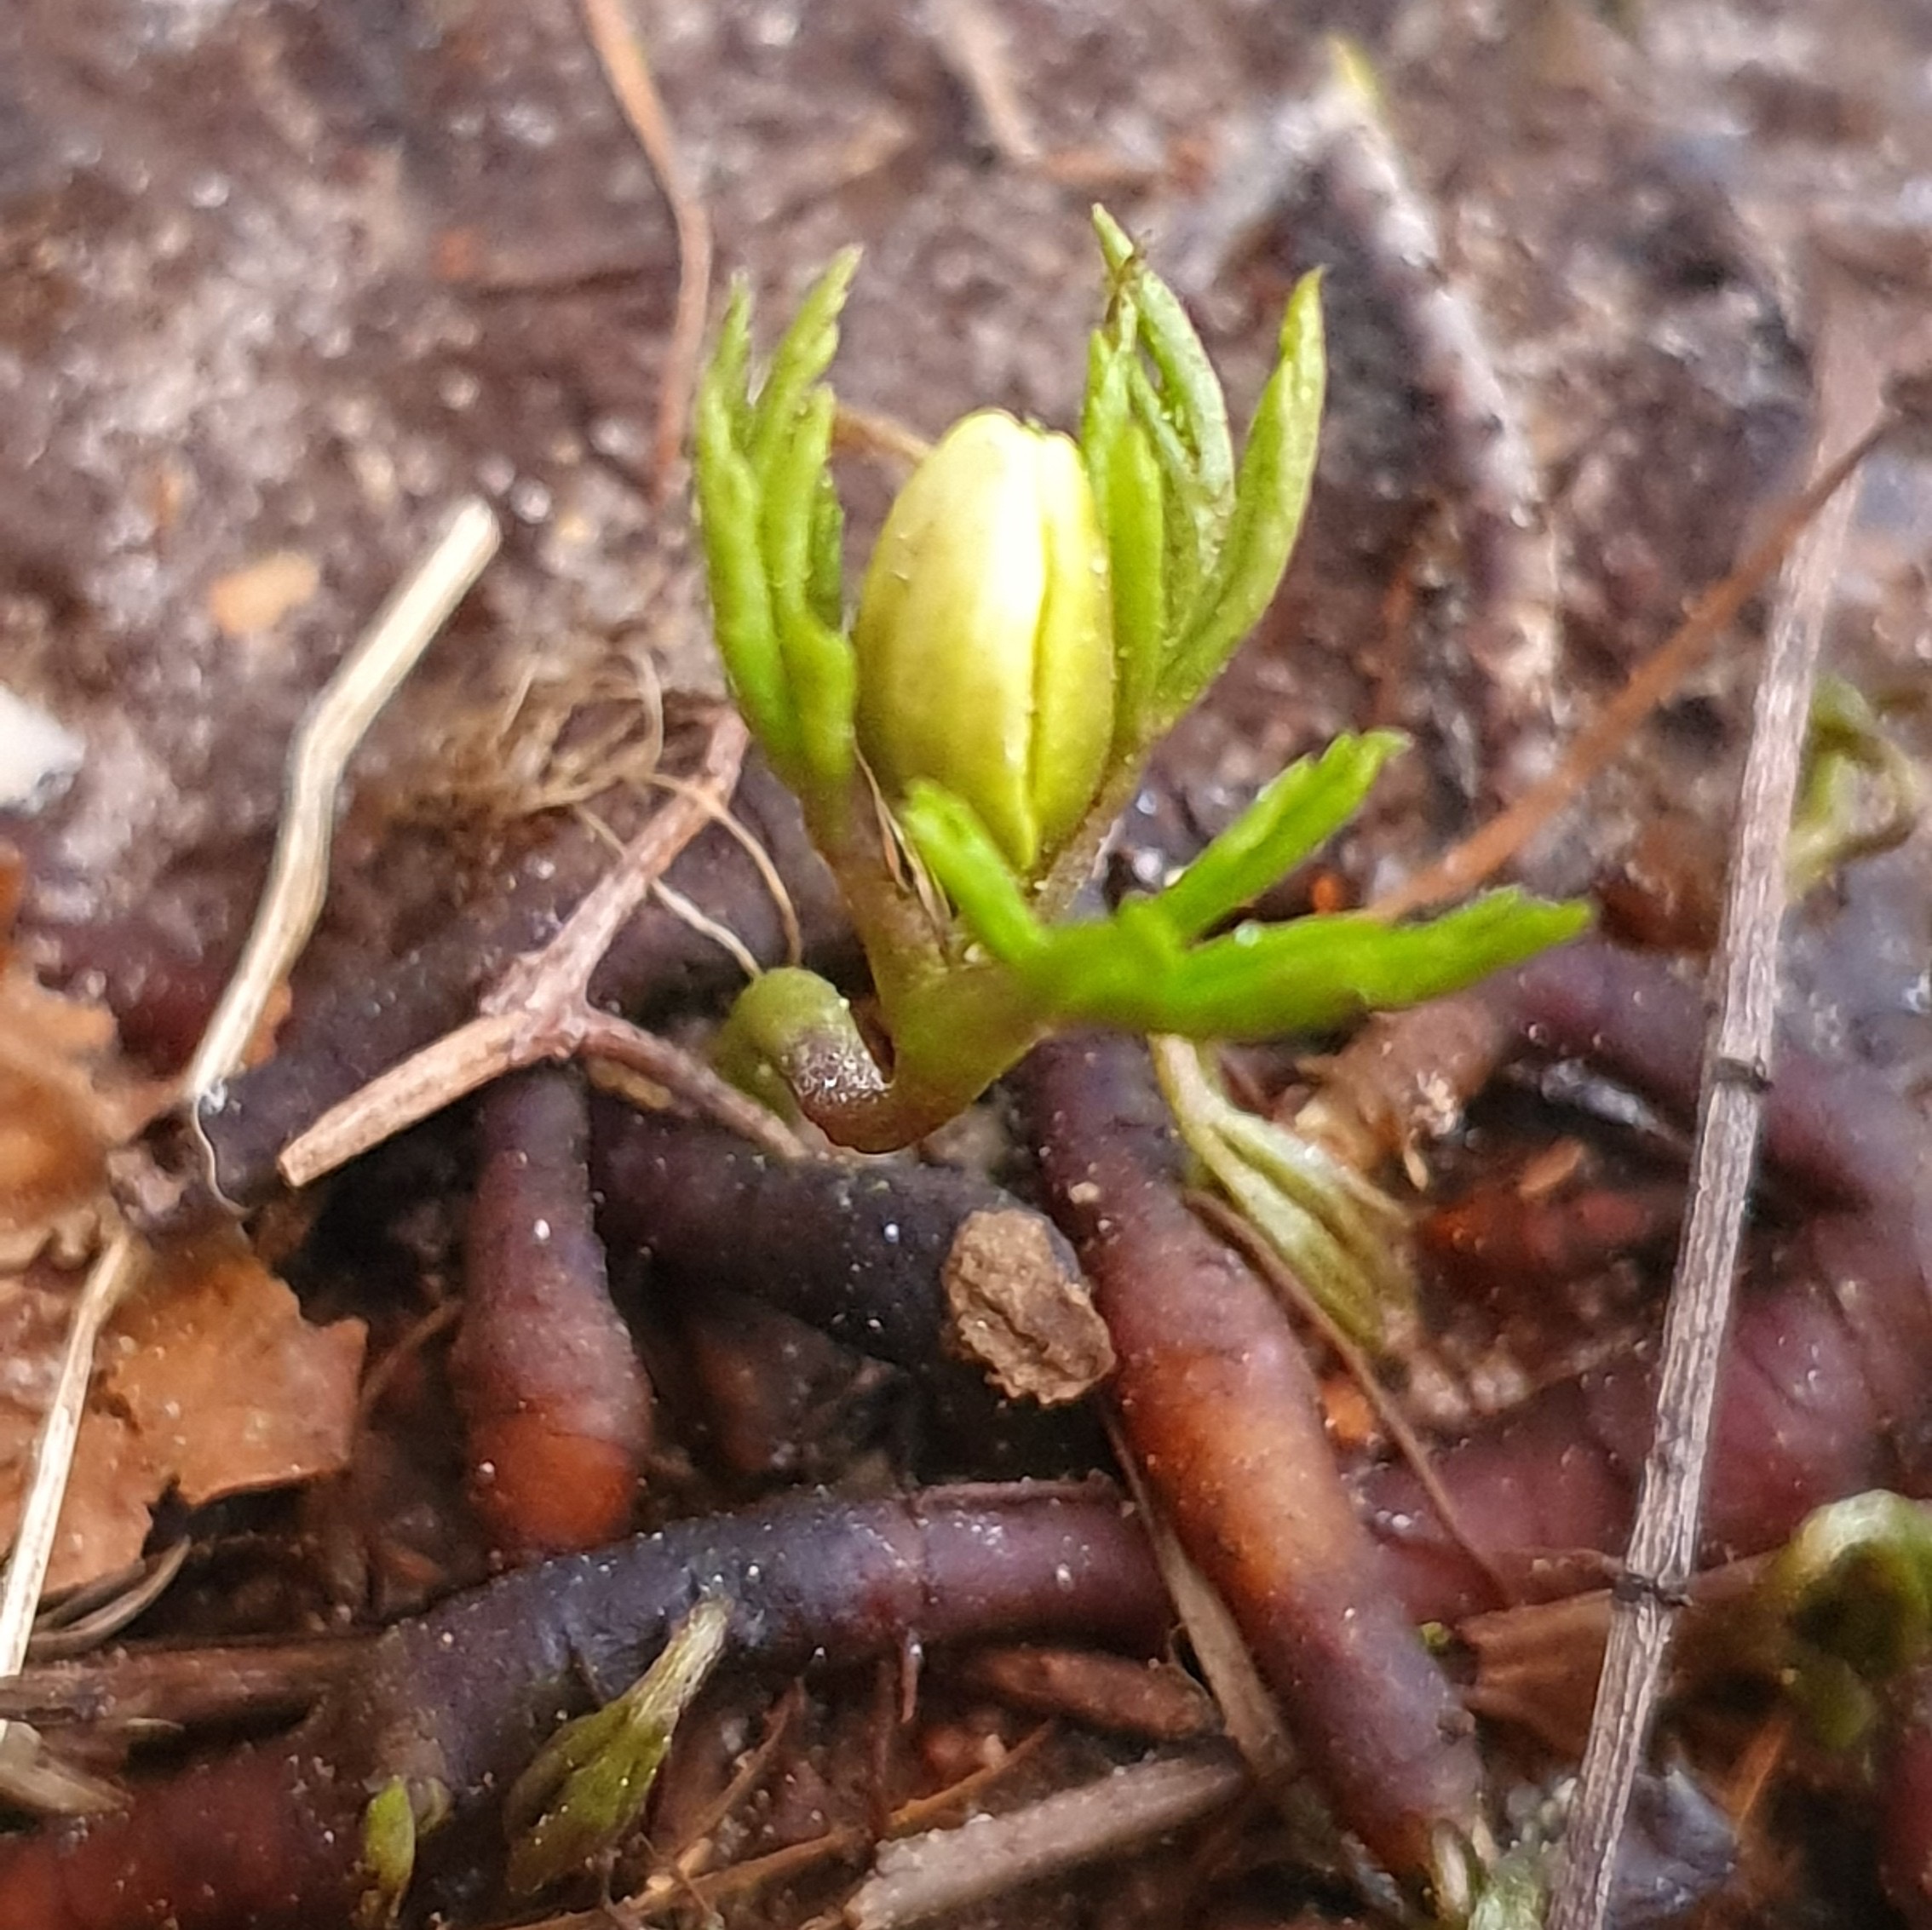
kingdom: Plantae
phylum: Tracheophyta
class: Magnoliopsida
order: Ranunculales
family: Ranunculaceae
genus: Anemone
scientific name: Anemone nemorosa
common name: Hvid anemone
